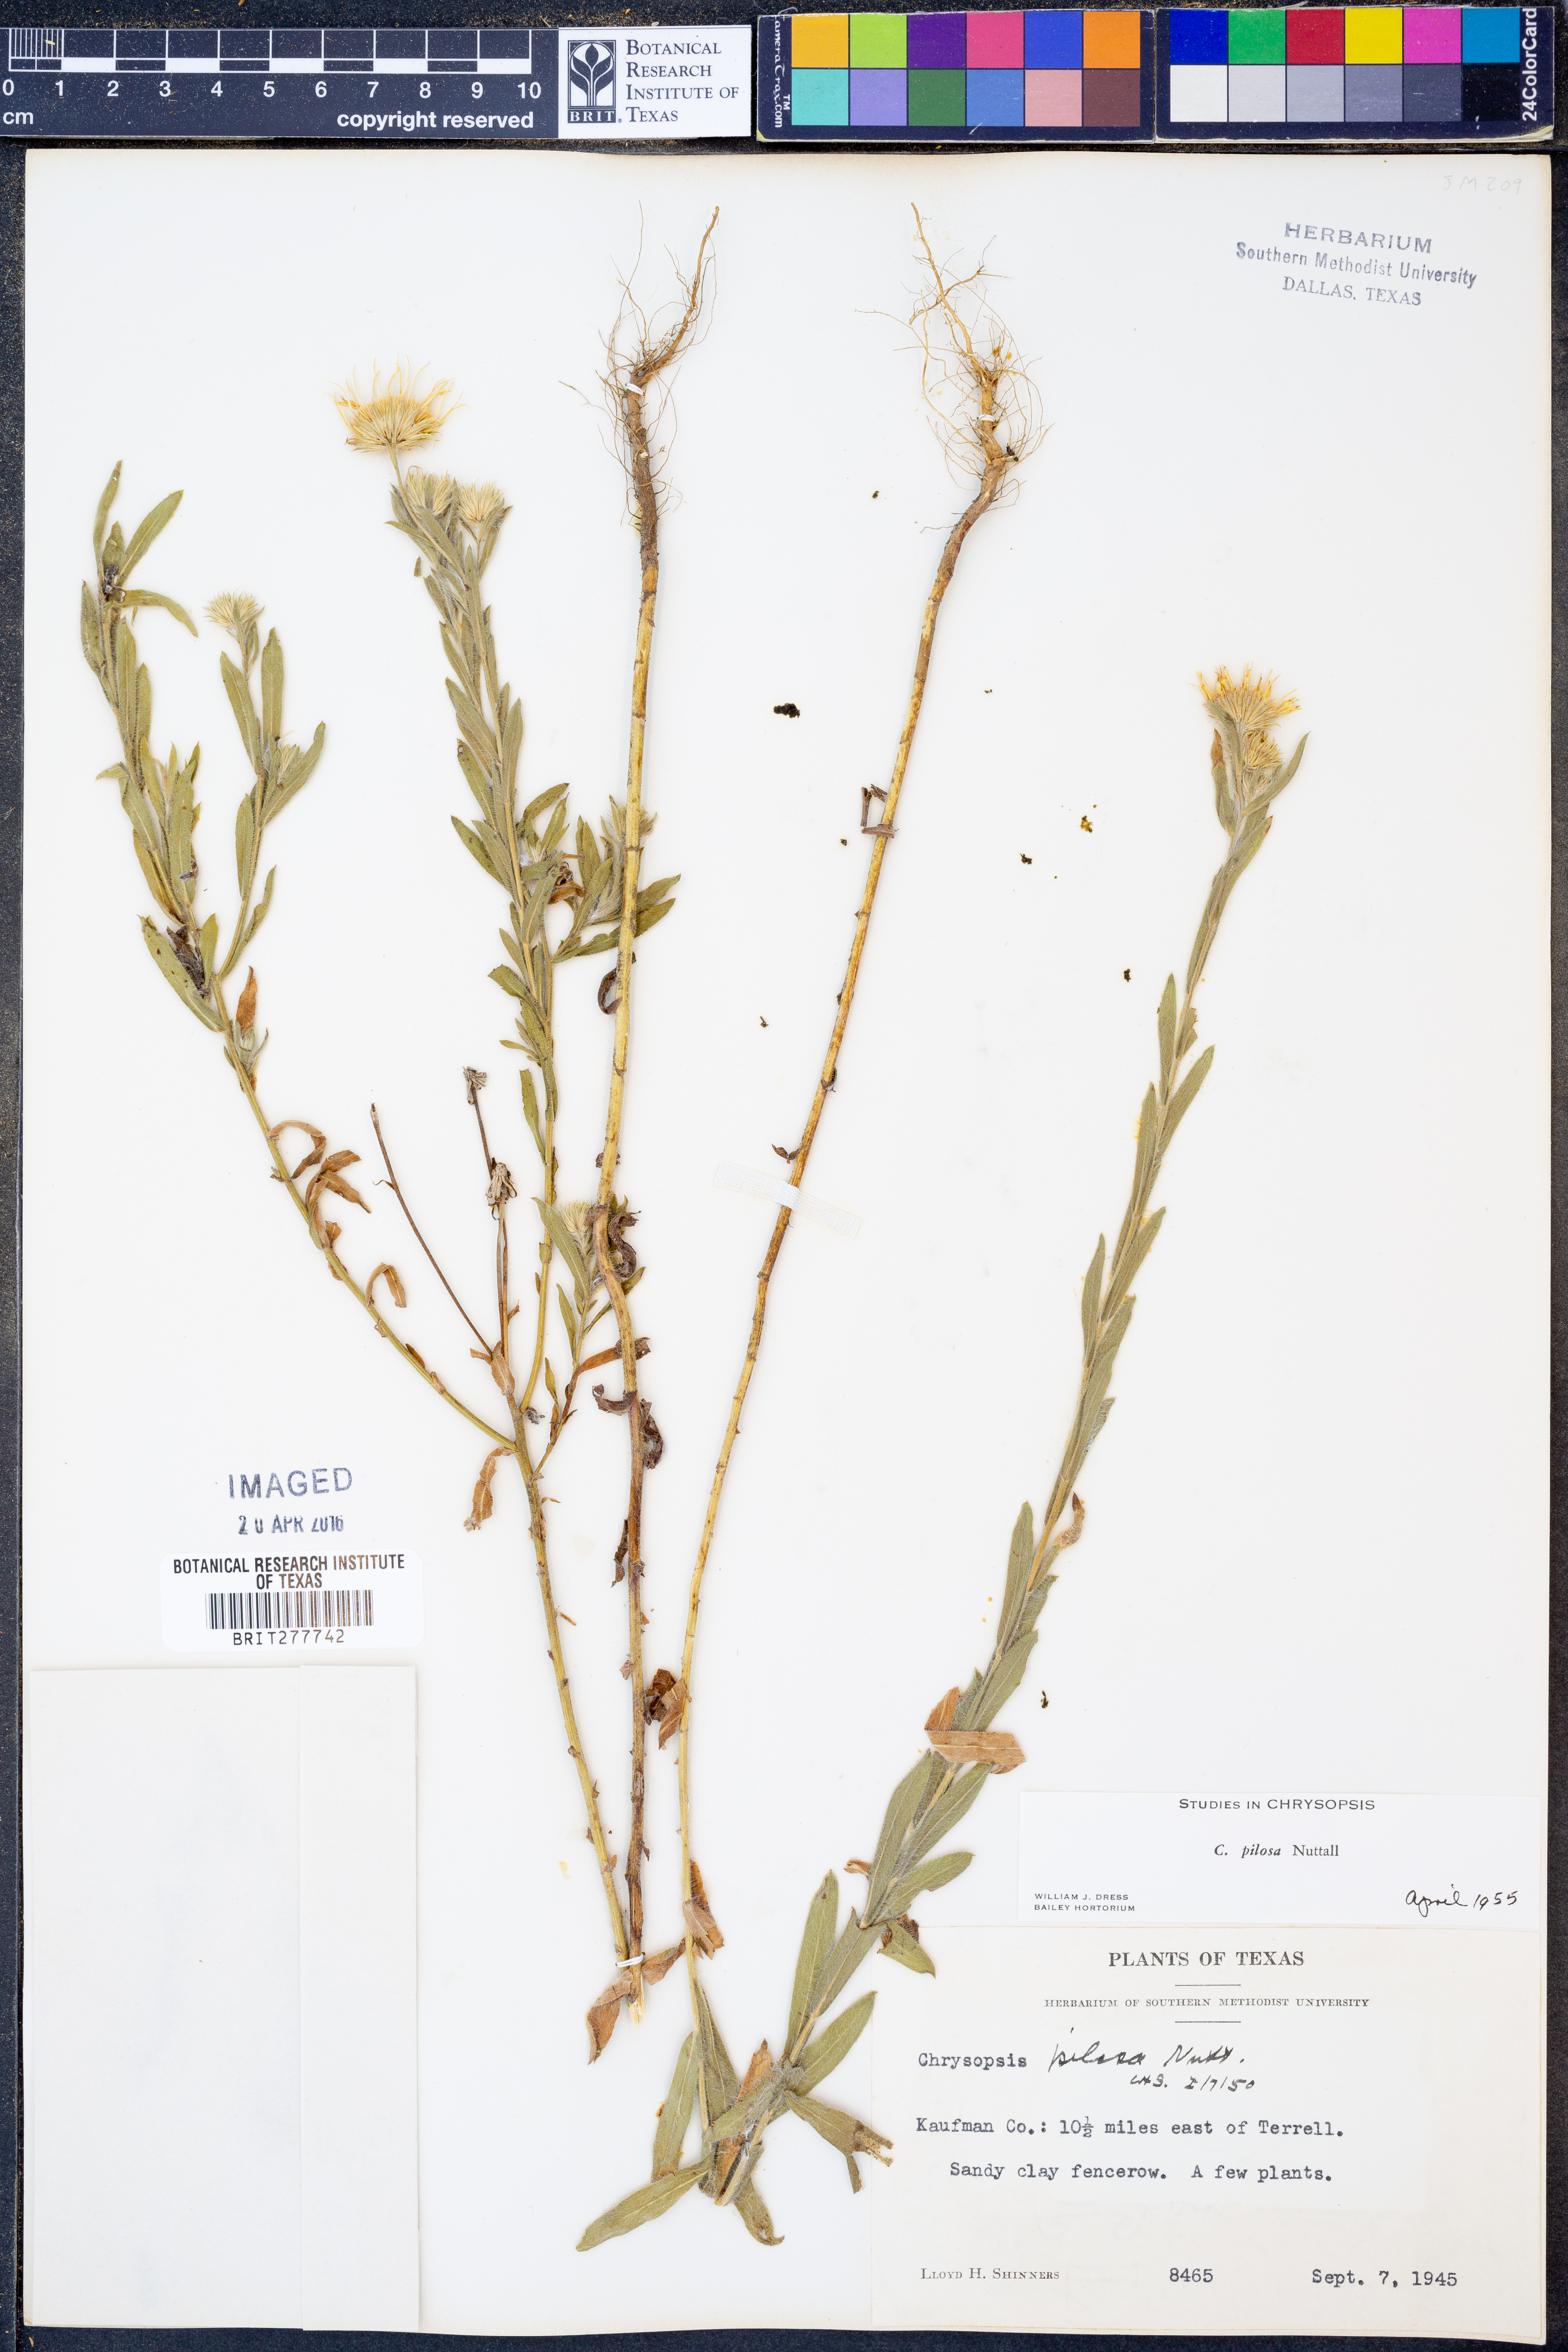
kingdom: Plantae
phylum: Tracheophyta
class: Magnoliopsida
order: Asterales
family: Asteraceae
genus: Bradburia
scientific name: Bradburia pilosa
